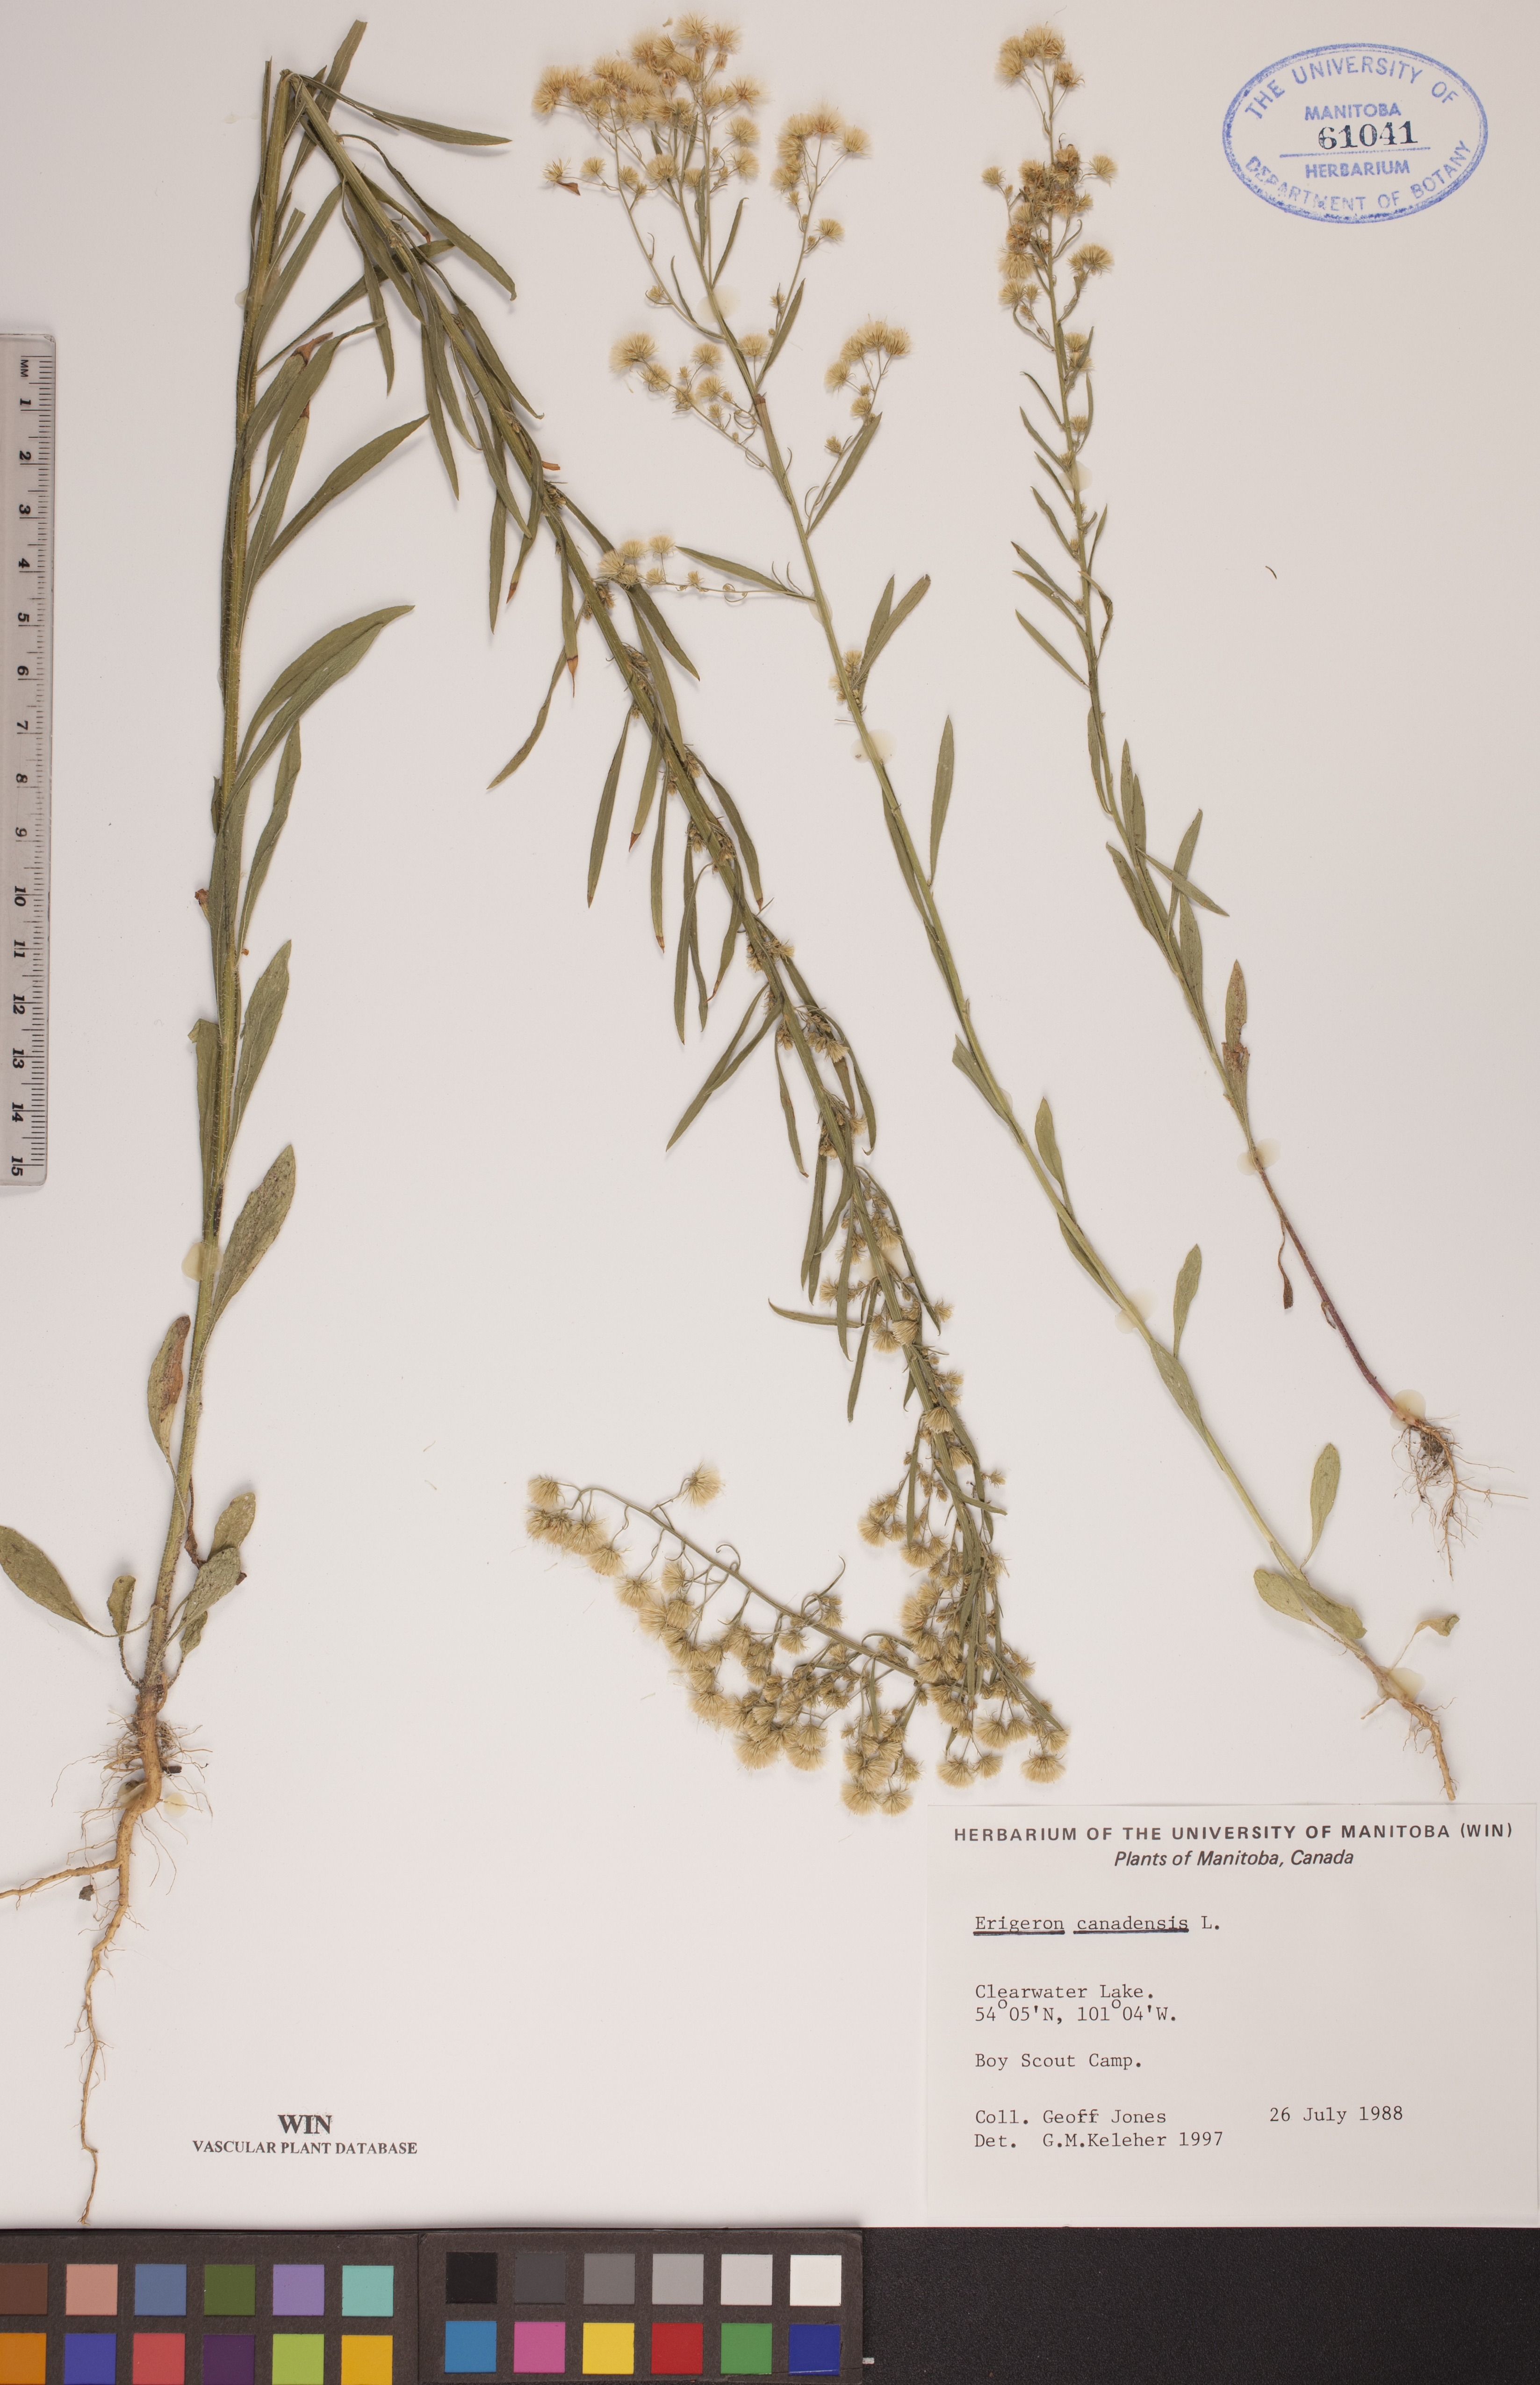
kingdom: Plantae
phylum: Tracheophyta
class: Magnoliopsida
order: Asterales
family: Asteraceae
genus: Erigeron
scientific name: Erigeron canadensis
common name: Canadian fleabane
